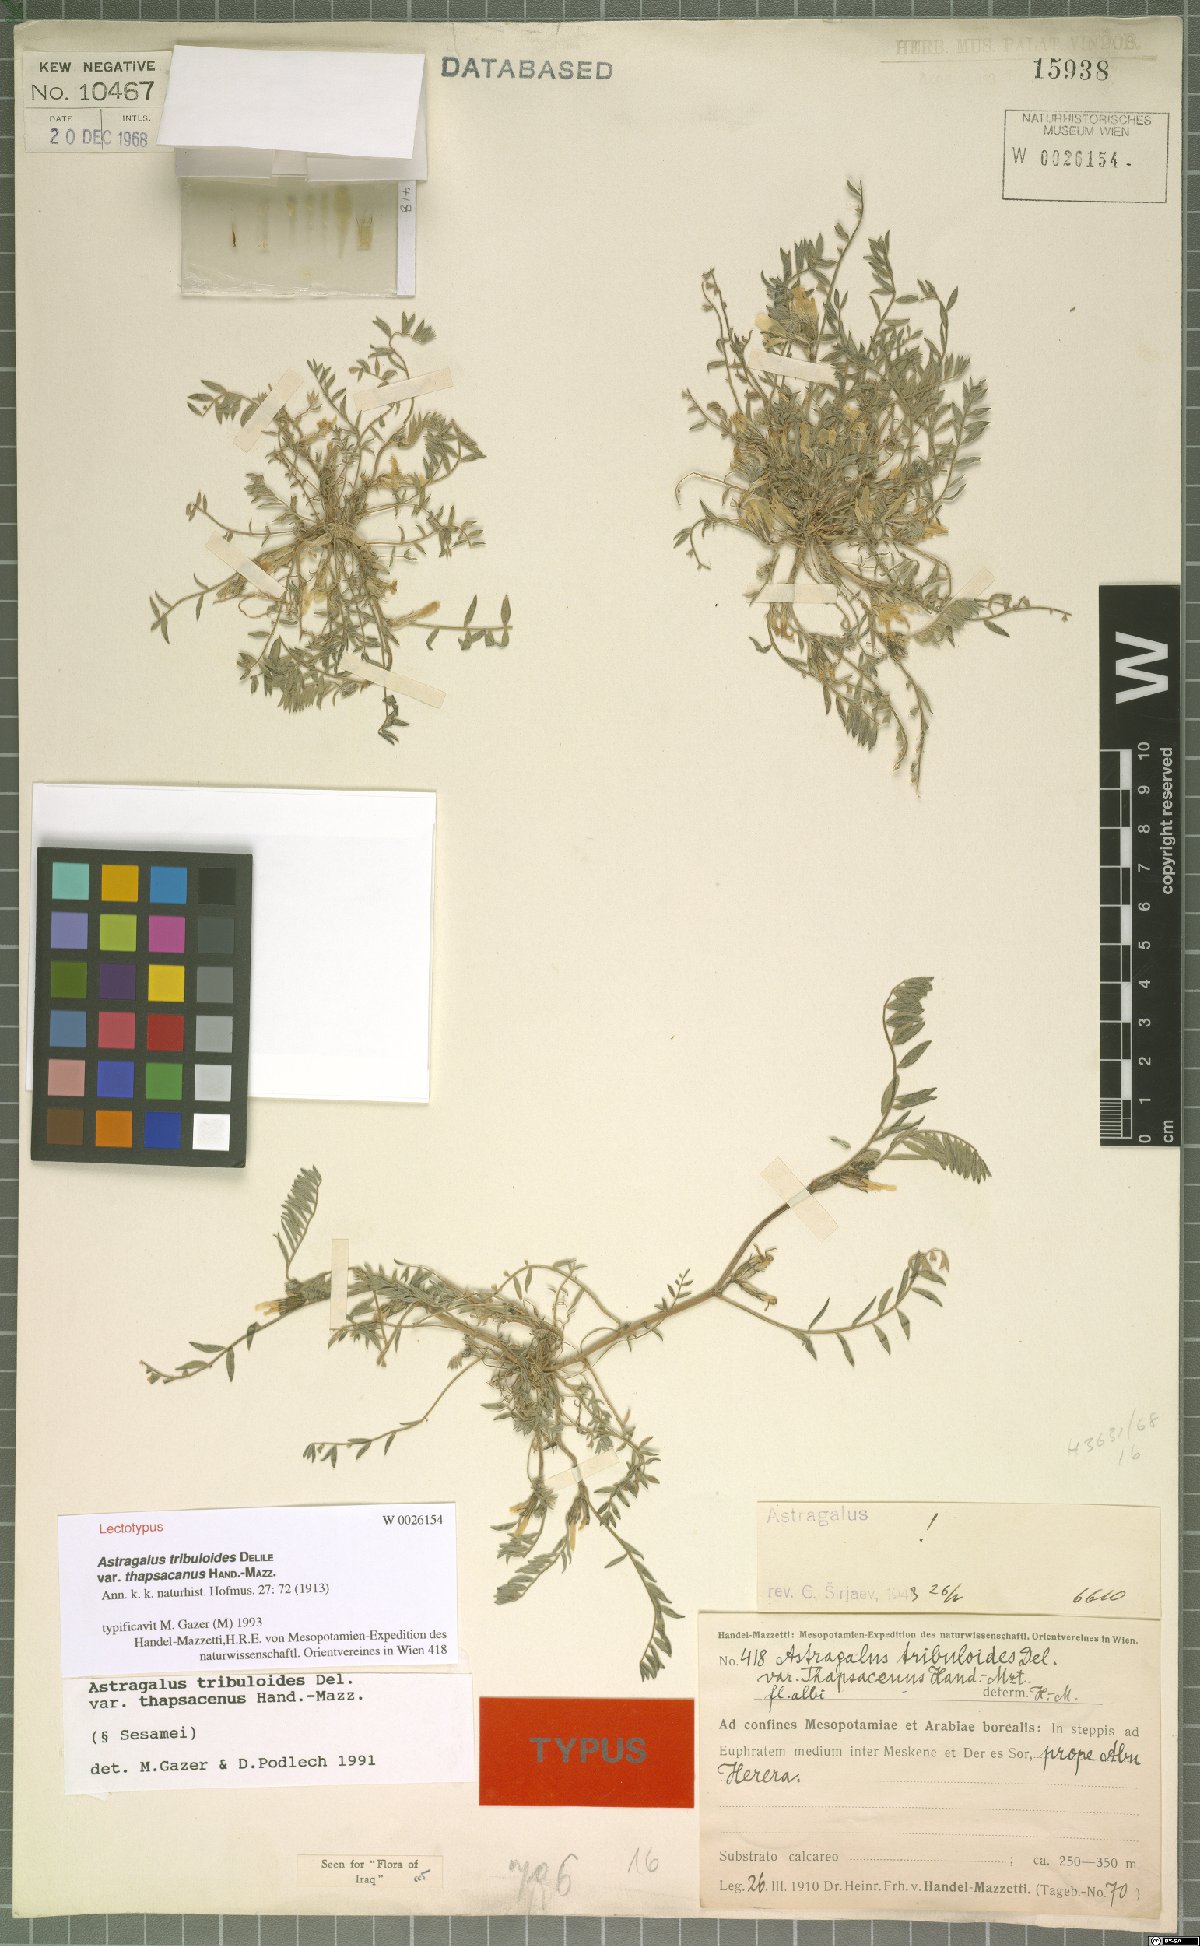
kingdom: Plantae
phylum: Tracheophyta
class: Magnoliopsida
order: Fabales
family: Fabaceae
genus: Astragalus
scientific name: Astragalus tribuloides
